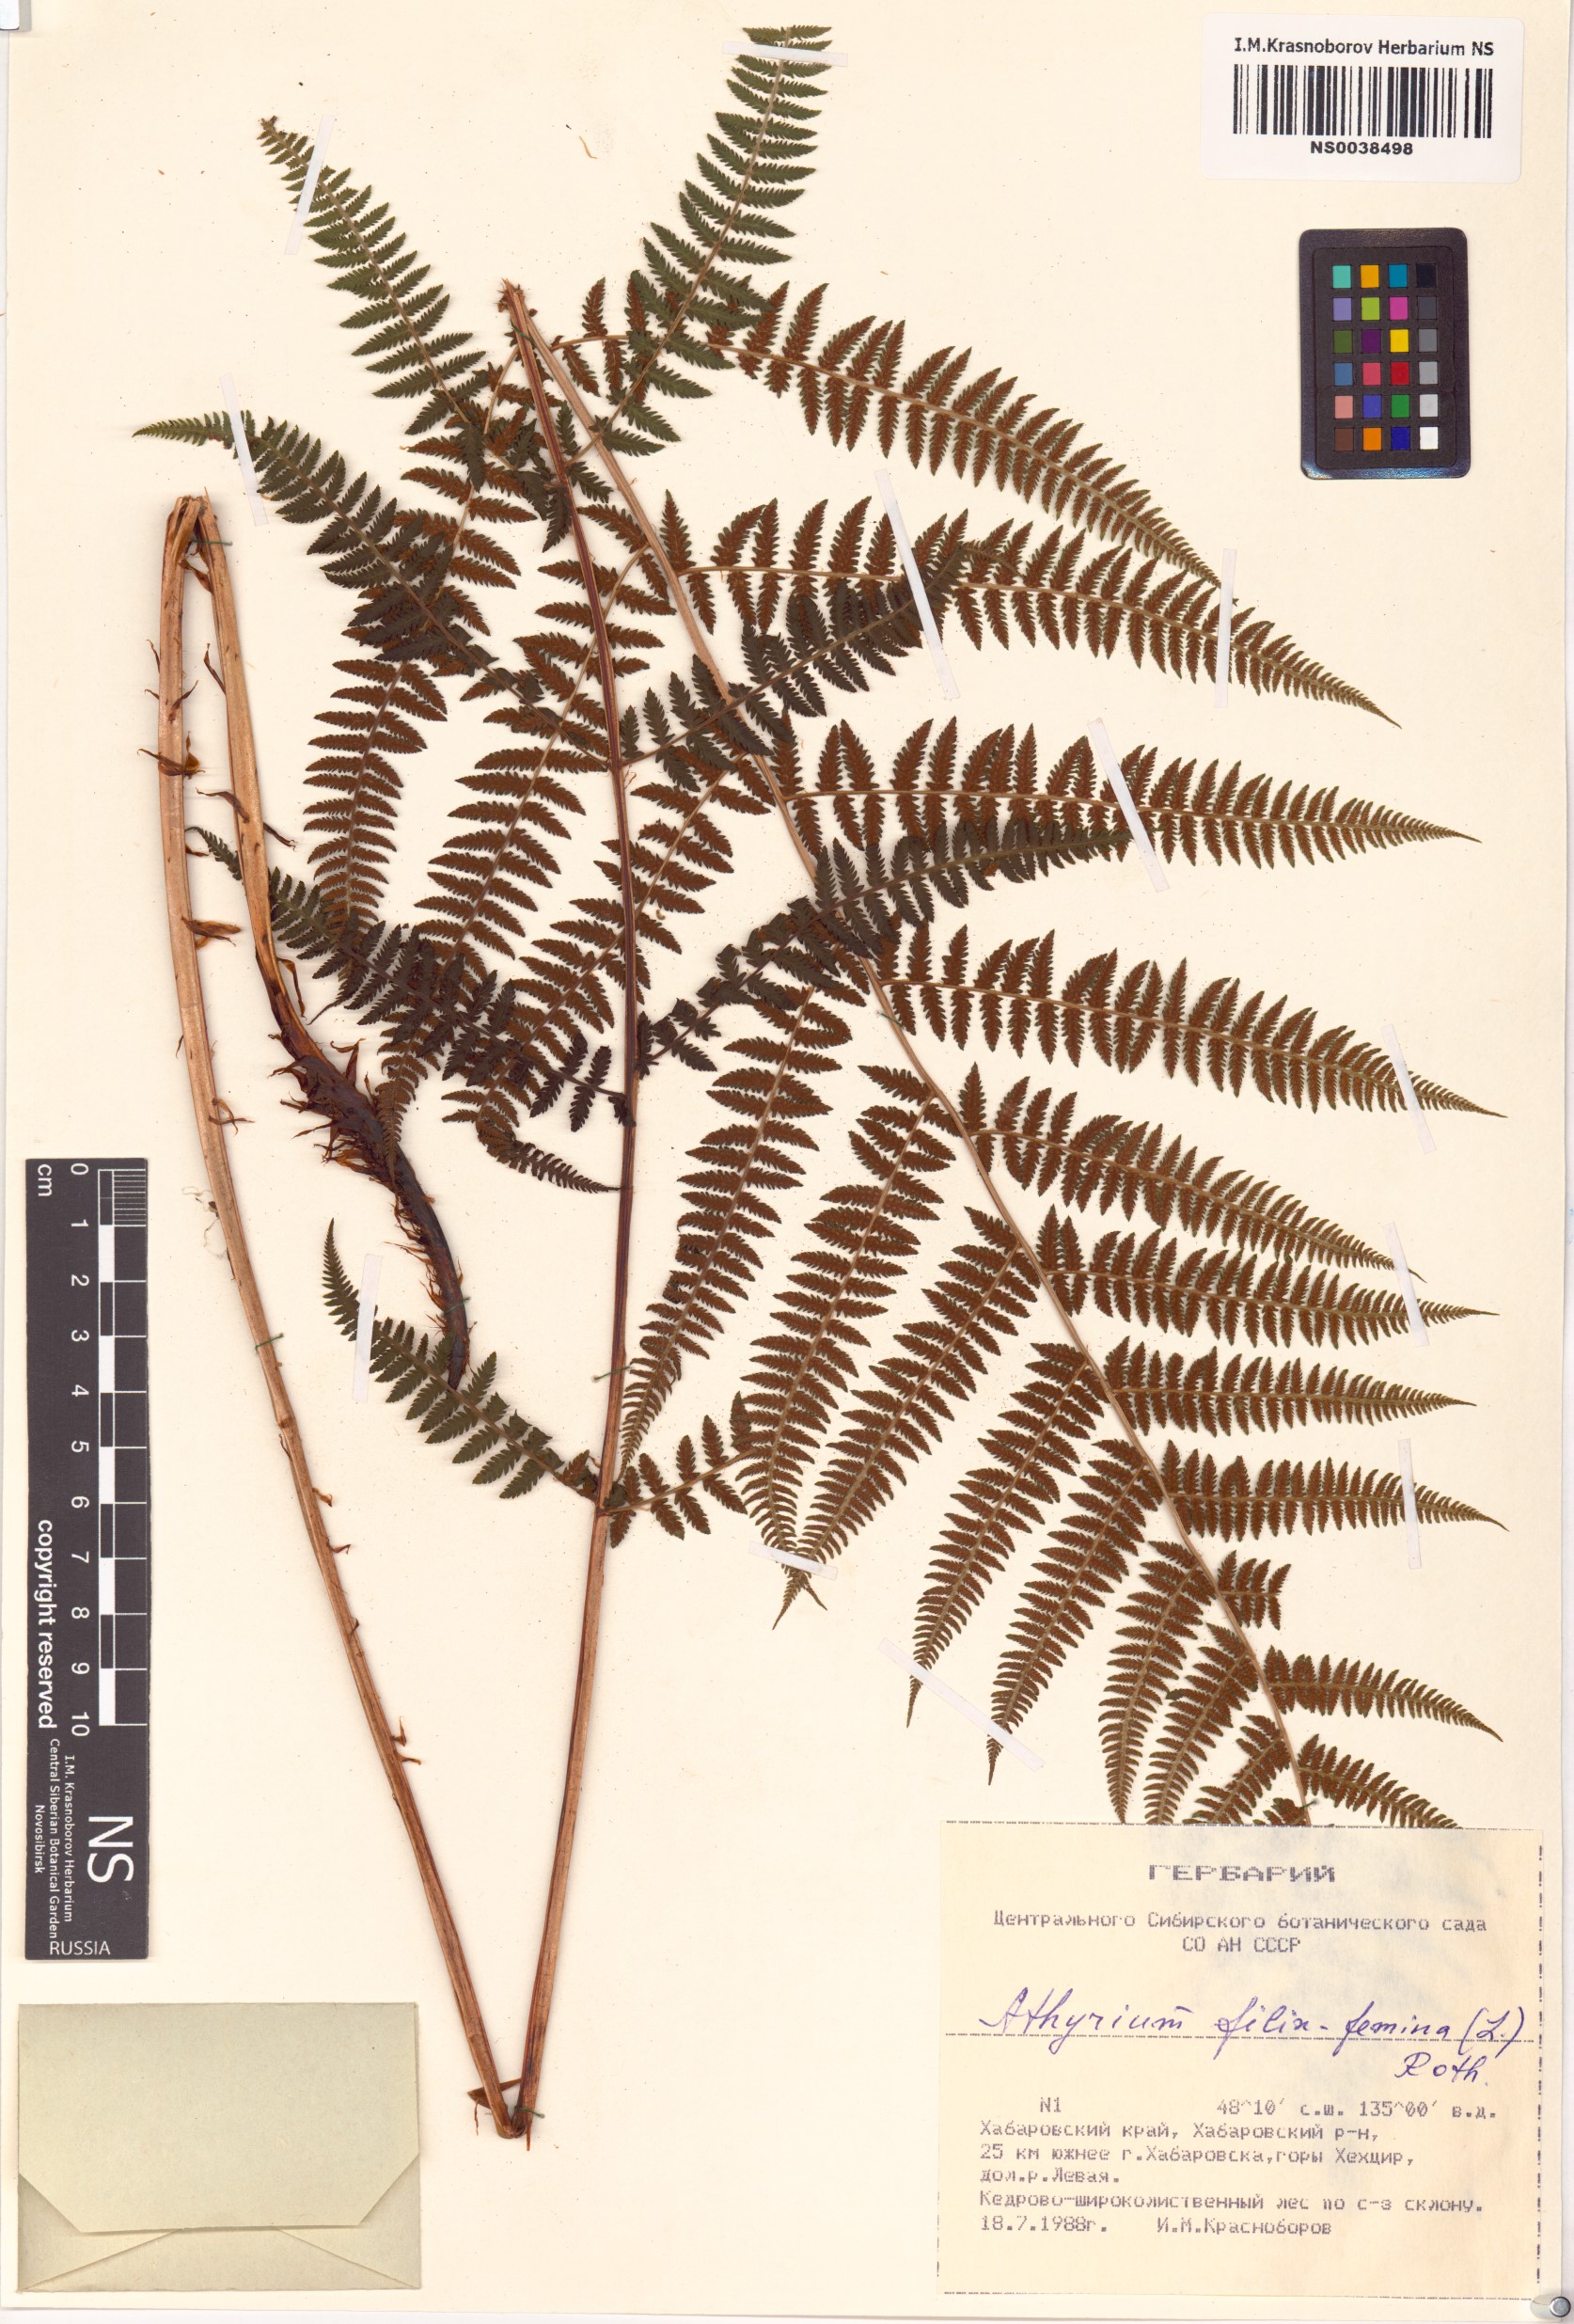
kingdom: Plantae
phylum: Tracheophyta
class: Polypodiopsida
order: Polypodiales
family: Athyriaceae
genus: Athyrium
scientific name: Athyrium filix-femina
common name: Lady fern
